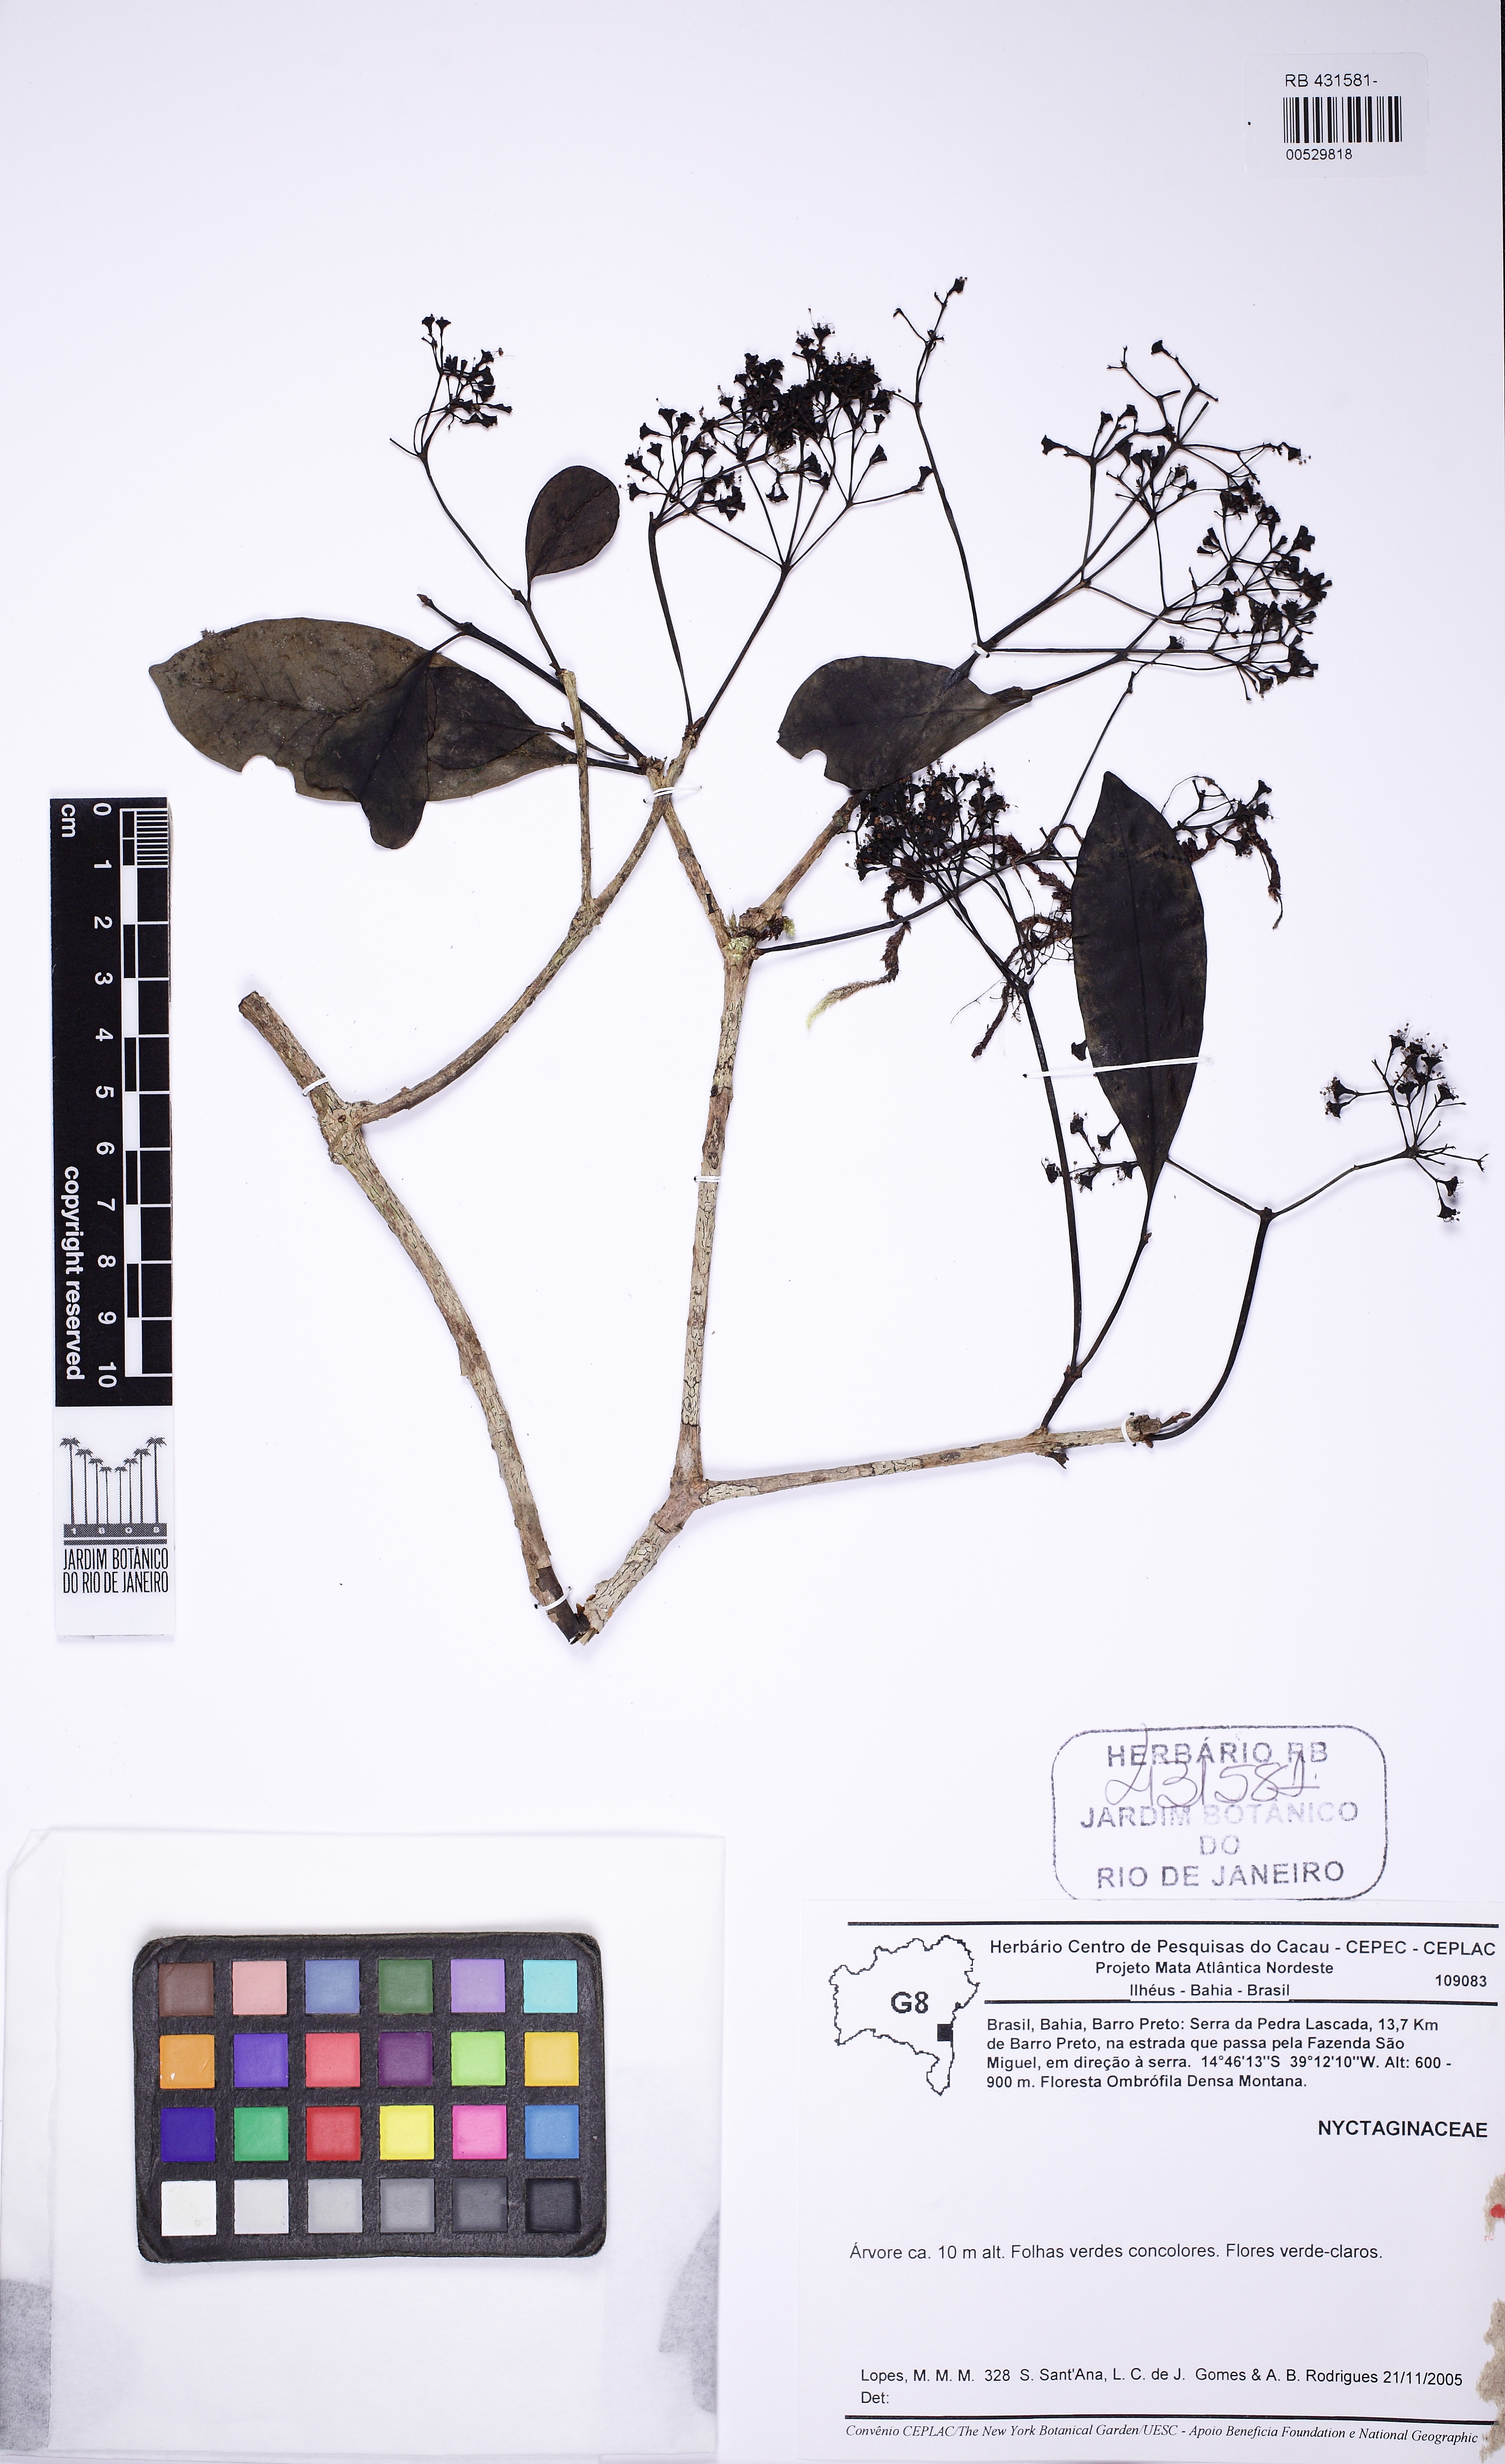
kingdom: Plantae
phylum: Tracheophyta
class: Magnoliopsida
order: Caryophyllales
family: Nyctaginaceae
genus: Guapira
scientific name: Guapira opposita
